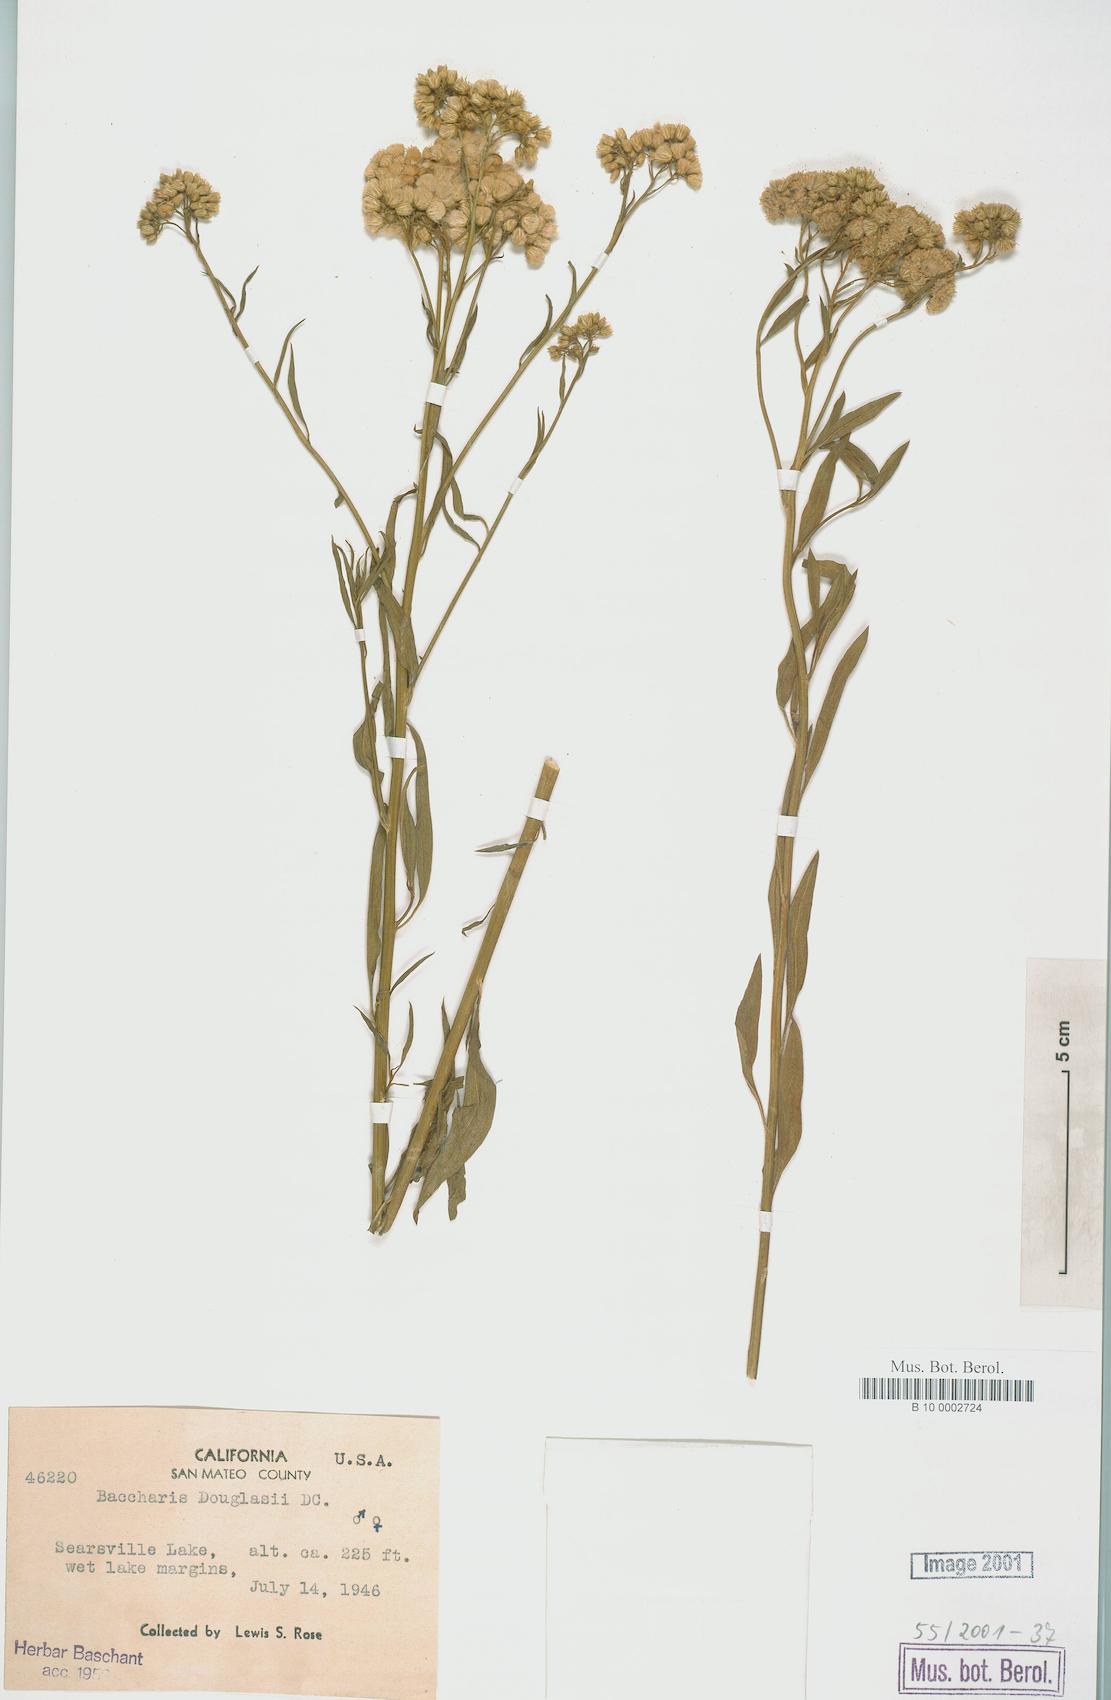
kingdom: Plantae
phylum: Tracheophyta
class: Magnoliopsida
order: Asterales
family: Asteraceae
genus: Baccharis
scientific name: Baccharis douglasii
